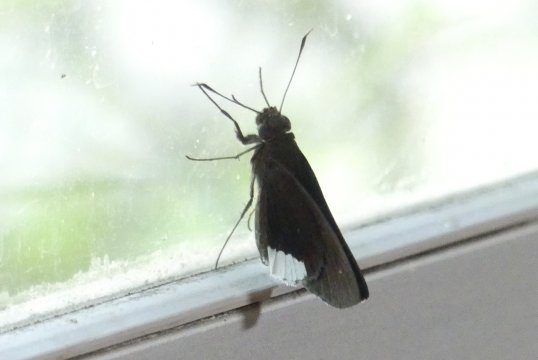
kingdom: Animalia
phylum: Arthropoda
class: Insecta
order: Lepidoptera
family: Hesperiidae
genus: Cobalus
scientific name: Cobalus virbius
